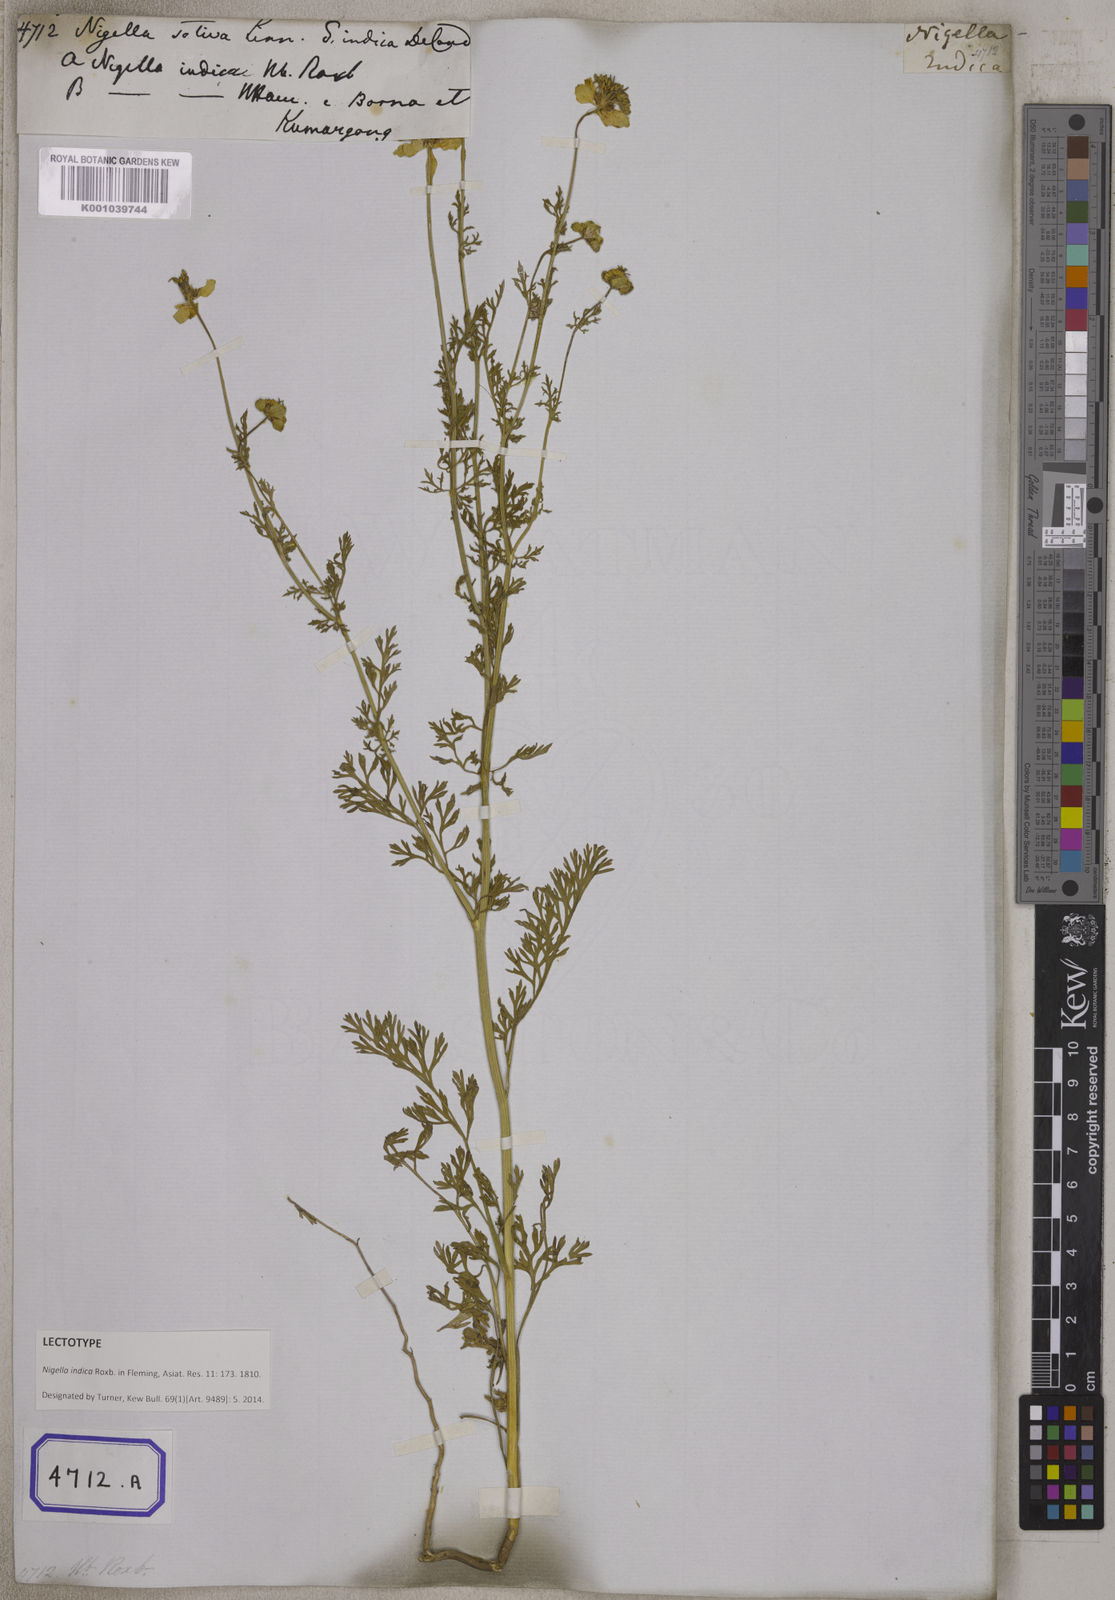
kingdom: Plantae
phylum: Tracheophyta
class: Magnoliopsida
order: Ranunculales
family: Ranunculaceae
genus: Nigella
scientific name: Nigella sativa
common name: Black-cumin
